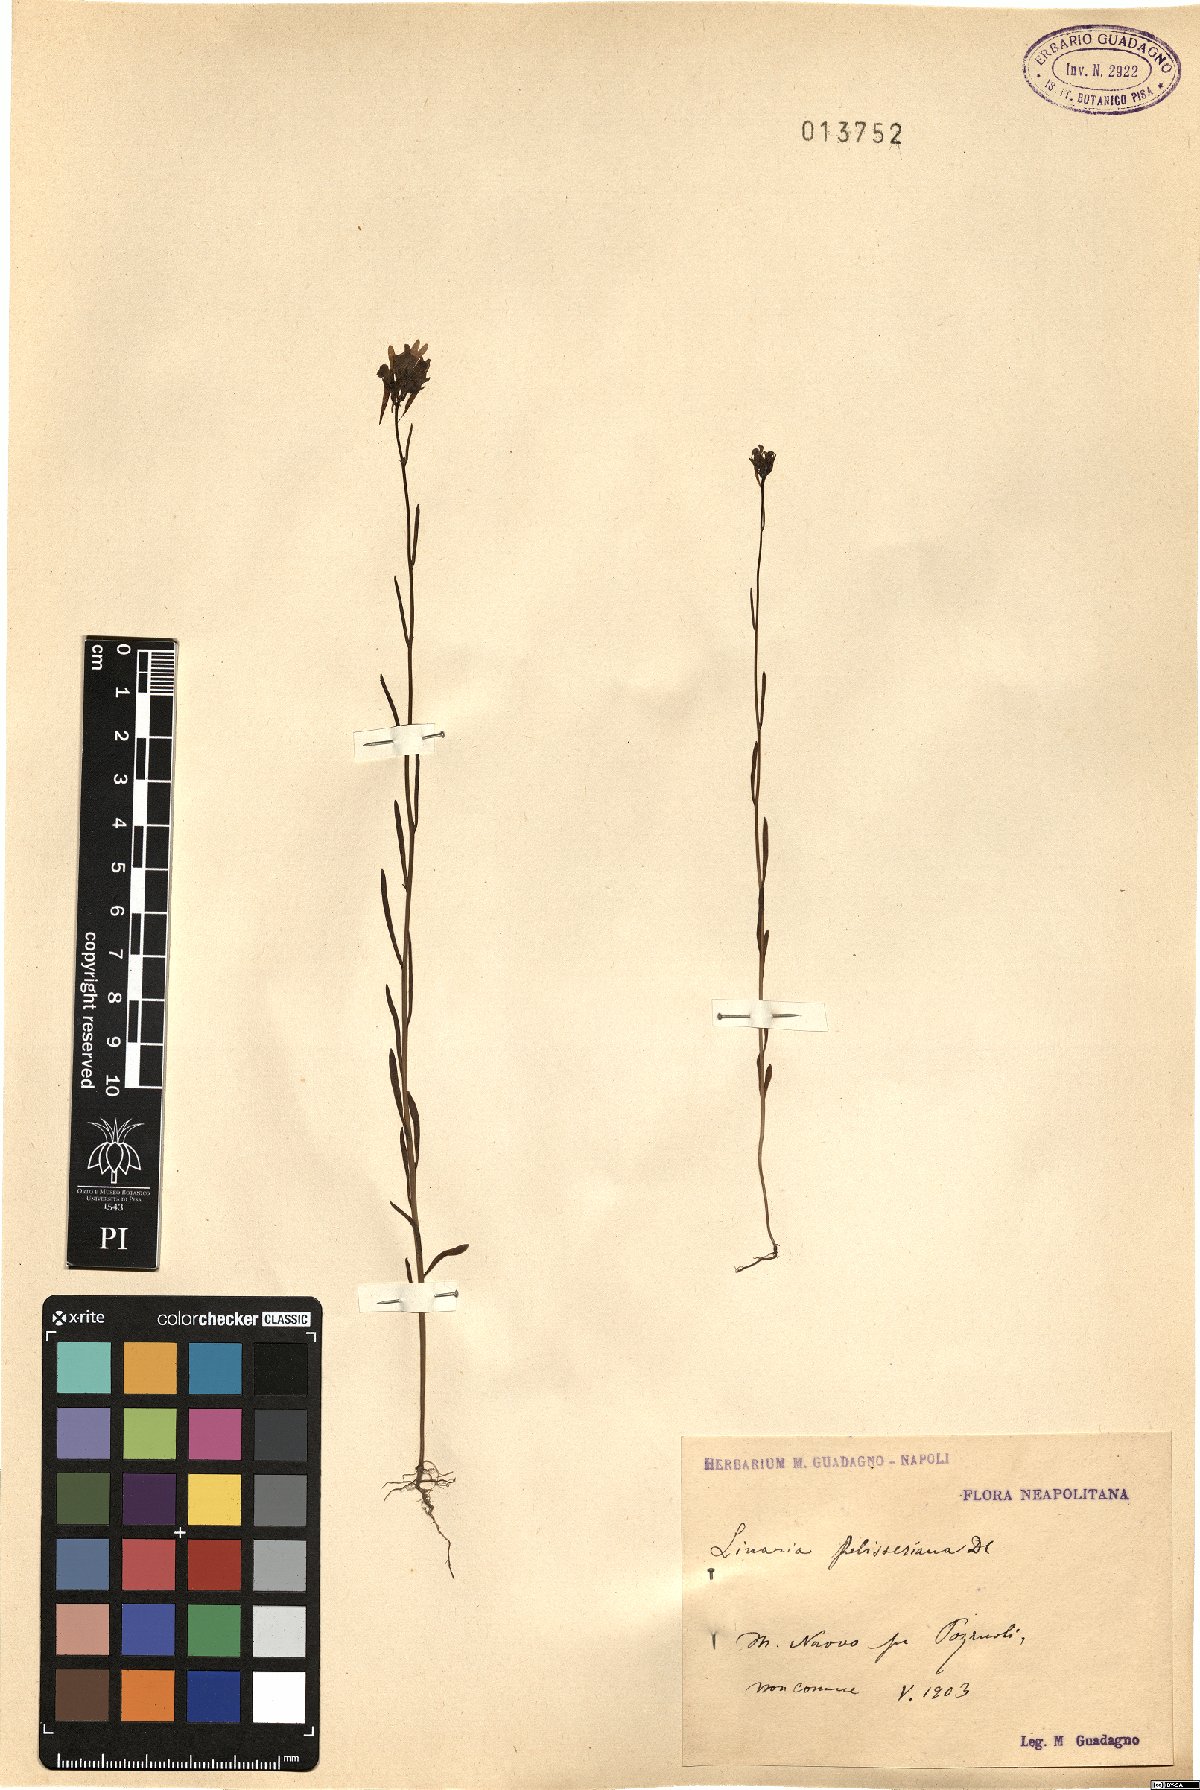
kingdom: Plantae
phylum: Tracheophyta
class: Magnoliopsida
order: Lamiales
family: Plantaginaceae
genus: Linaria
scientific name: Linaria pelisseriana
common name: Jersey toadflax
